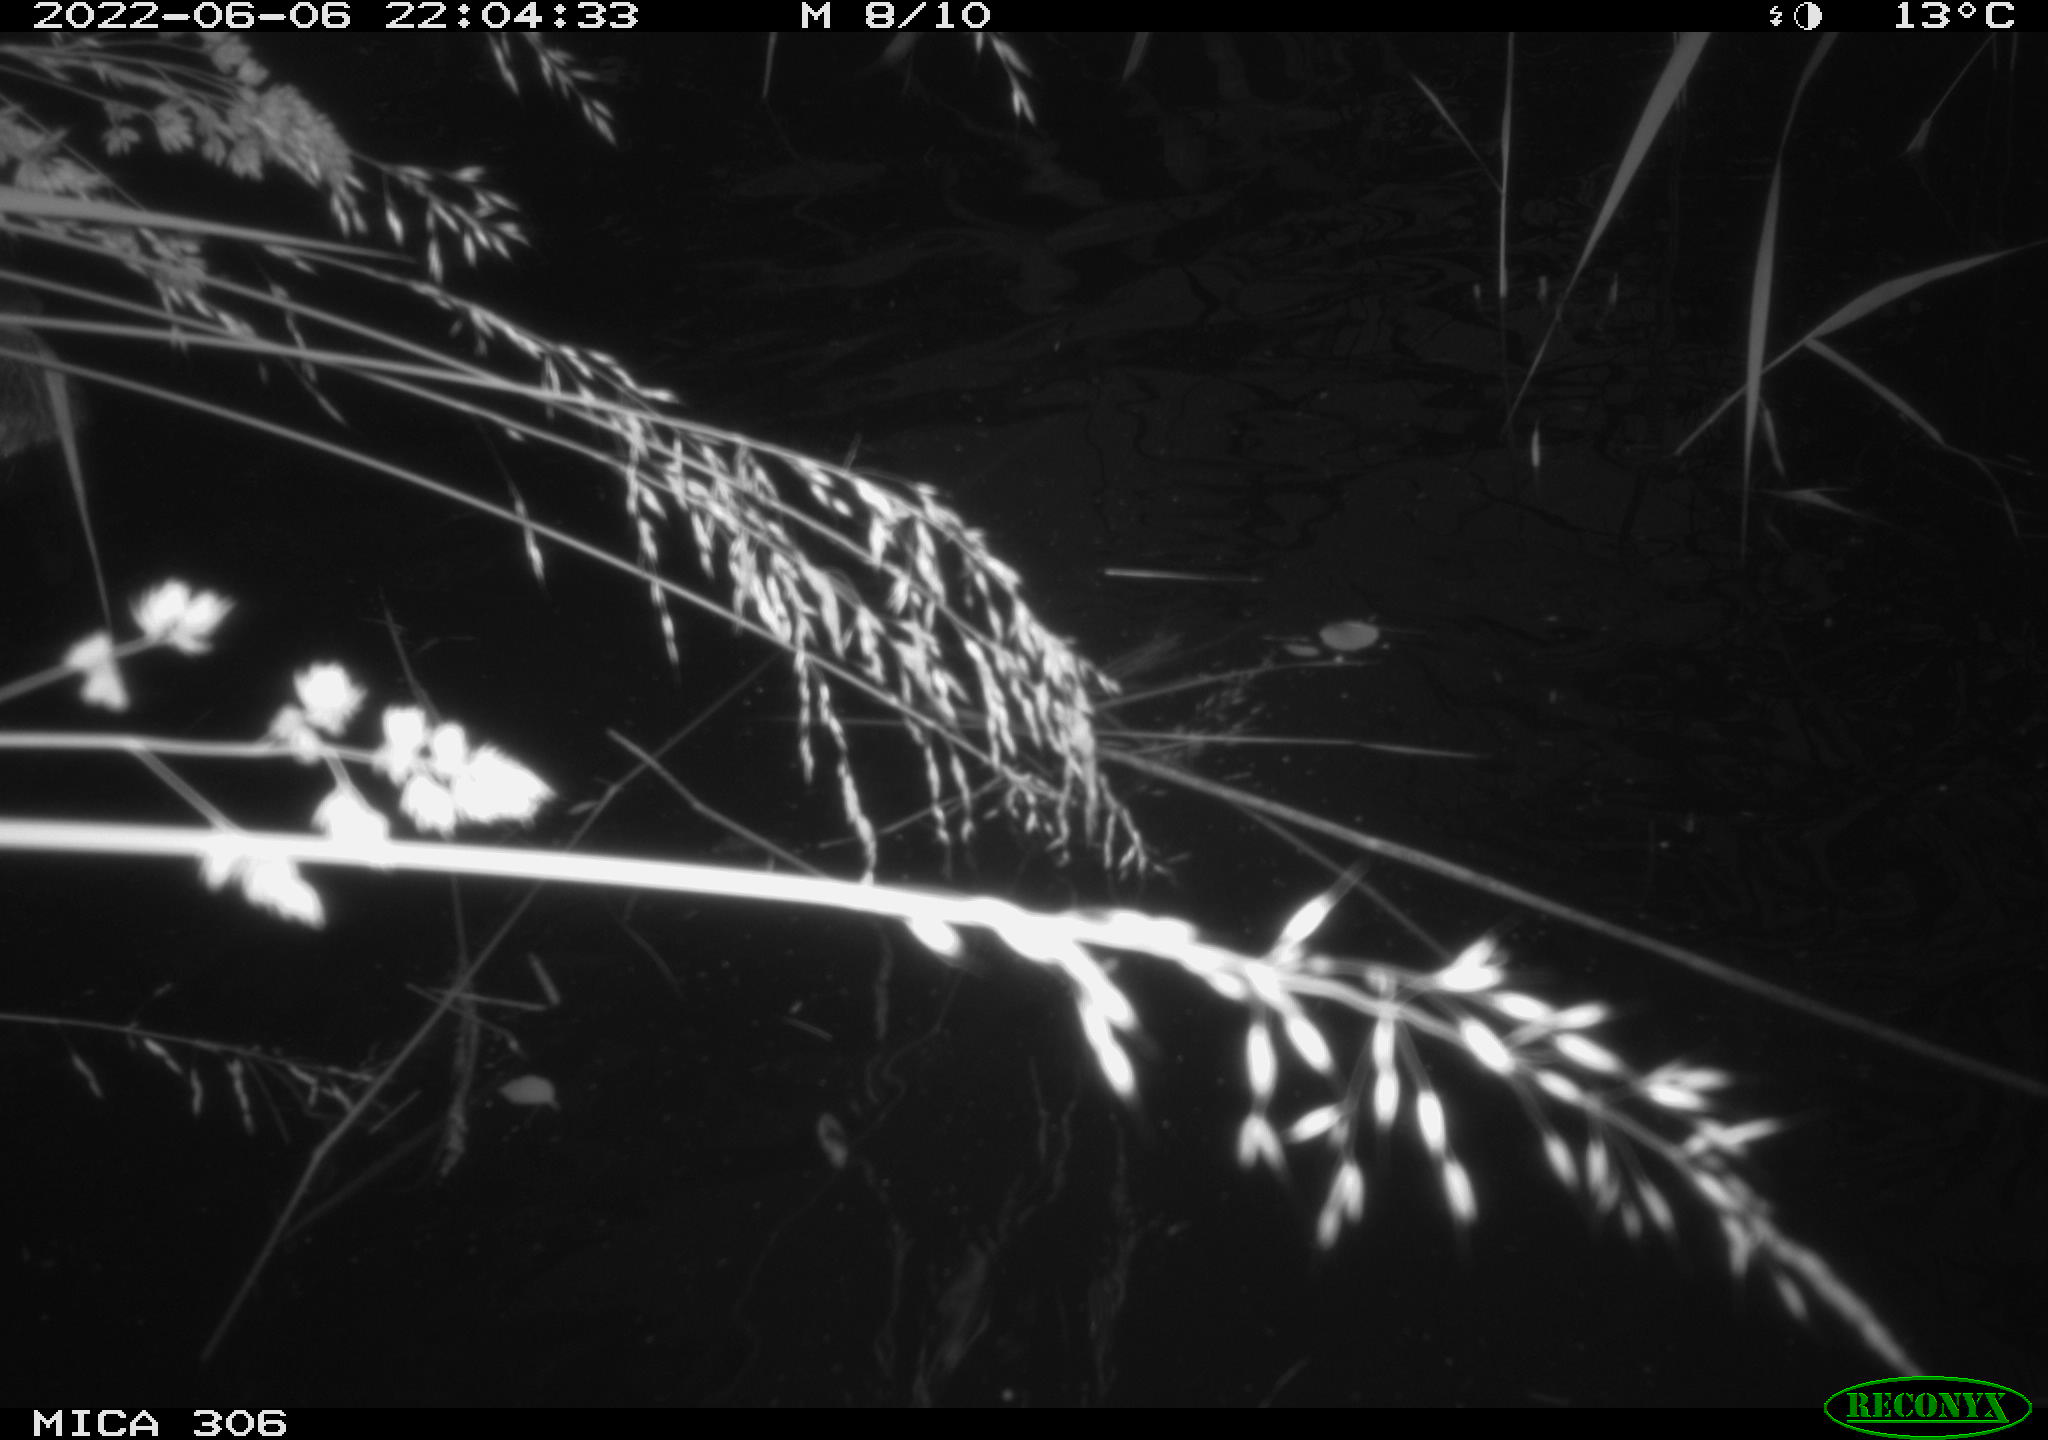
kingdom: Animalia
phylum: Chordata
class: Aves
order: Anseriformes
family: Anatidae
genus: Anas
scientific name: Anas platyrhynchos
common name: Mallard
